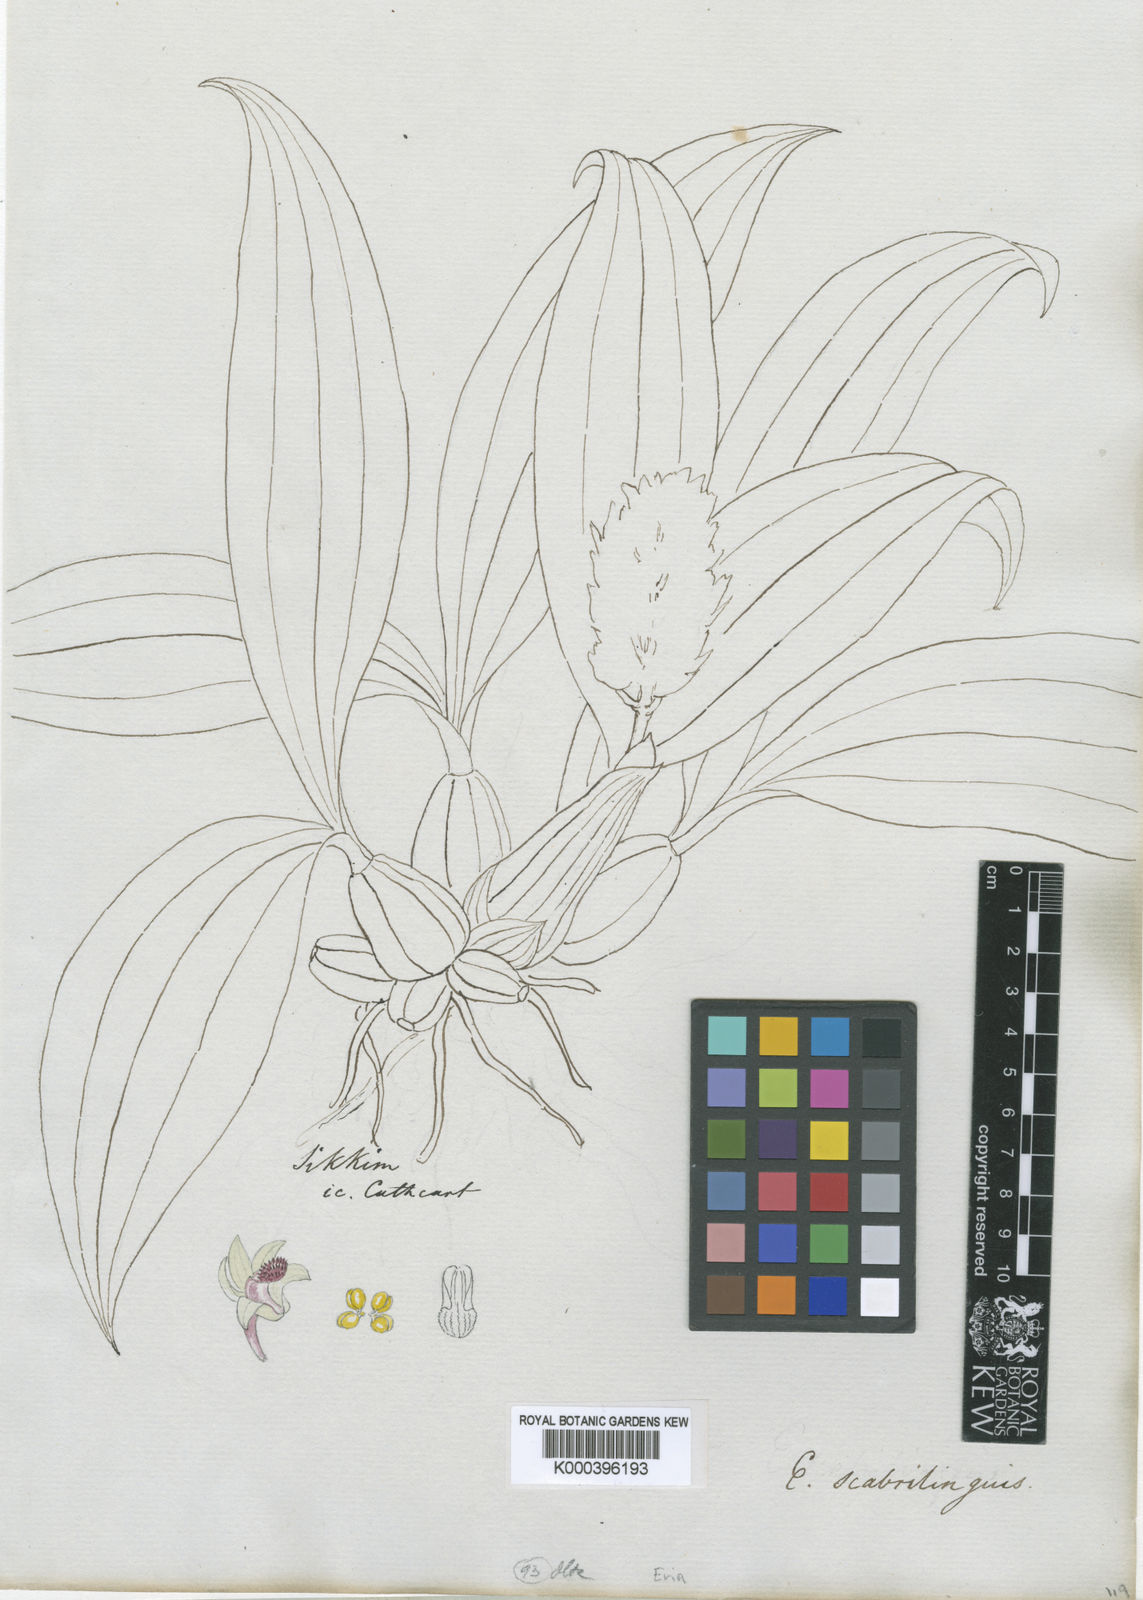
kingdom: Plantae
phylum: Tracheophyta
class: Liliopsida
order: Asparagales
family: Orchidaceae
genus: Eria
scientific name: Eria scabrilinguis
